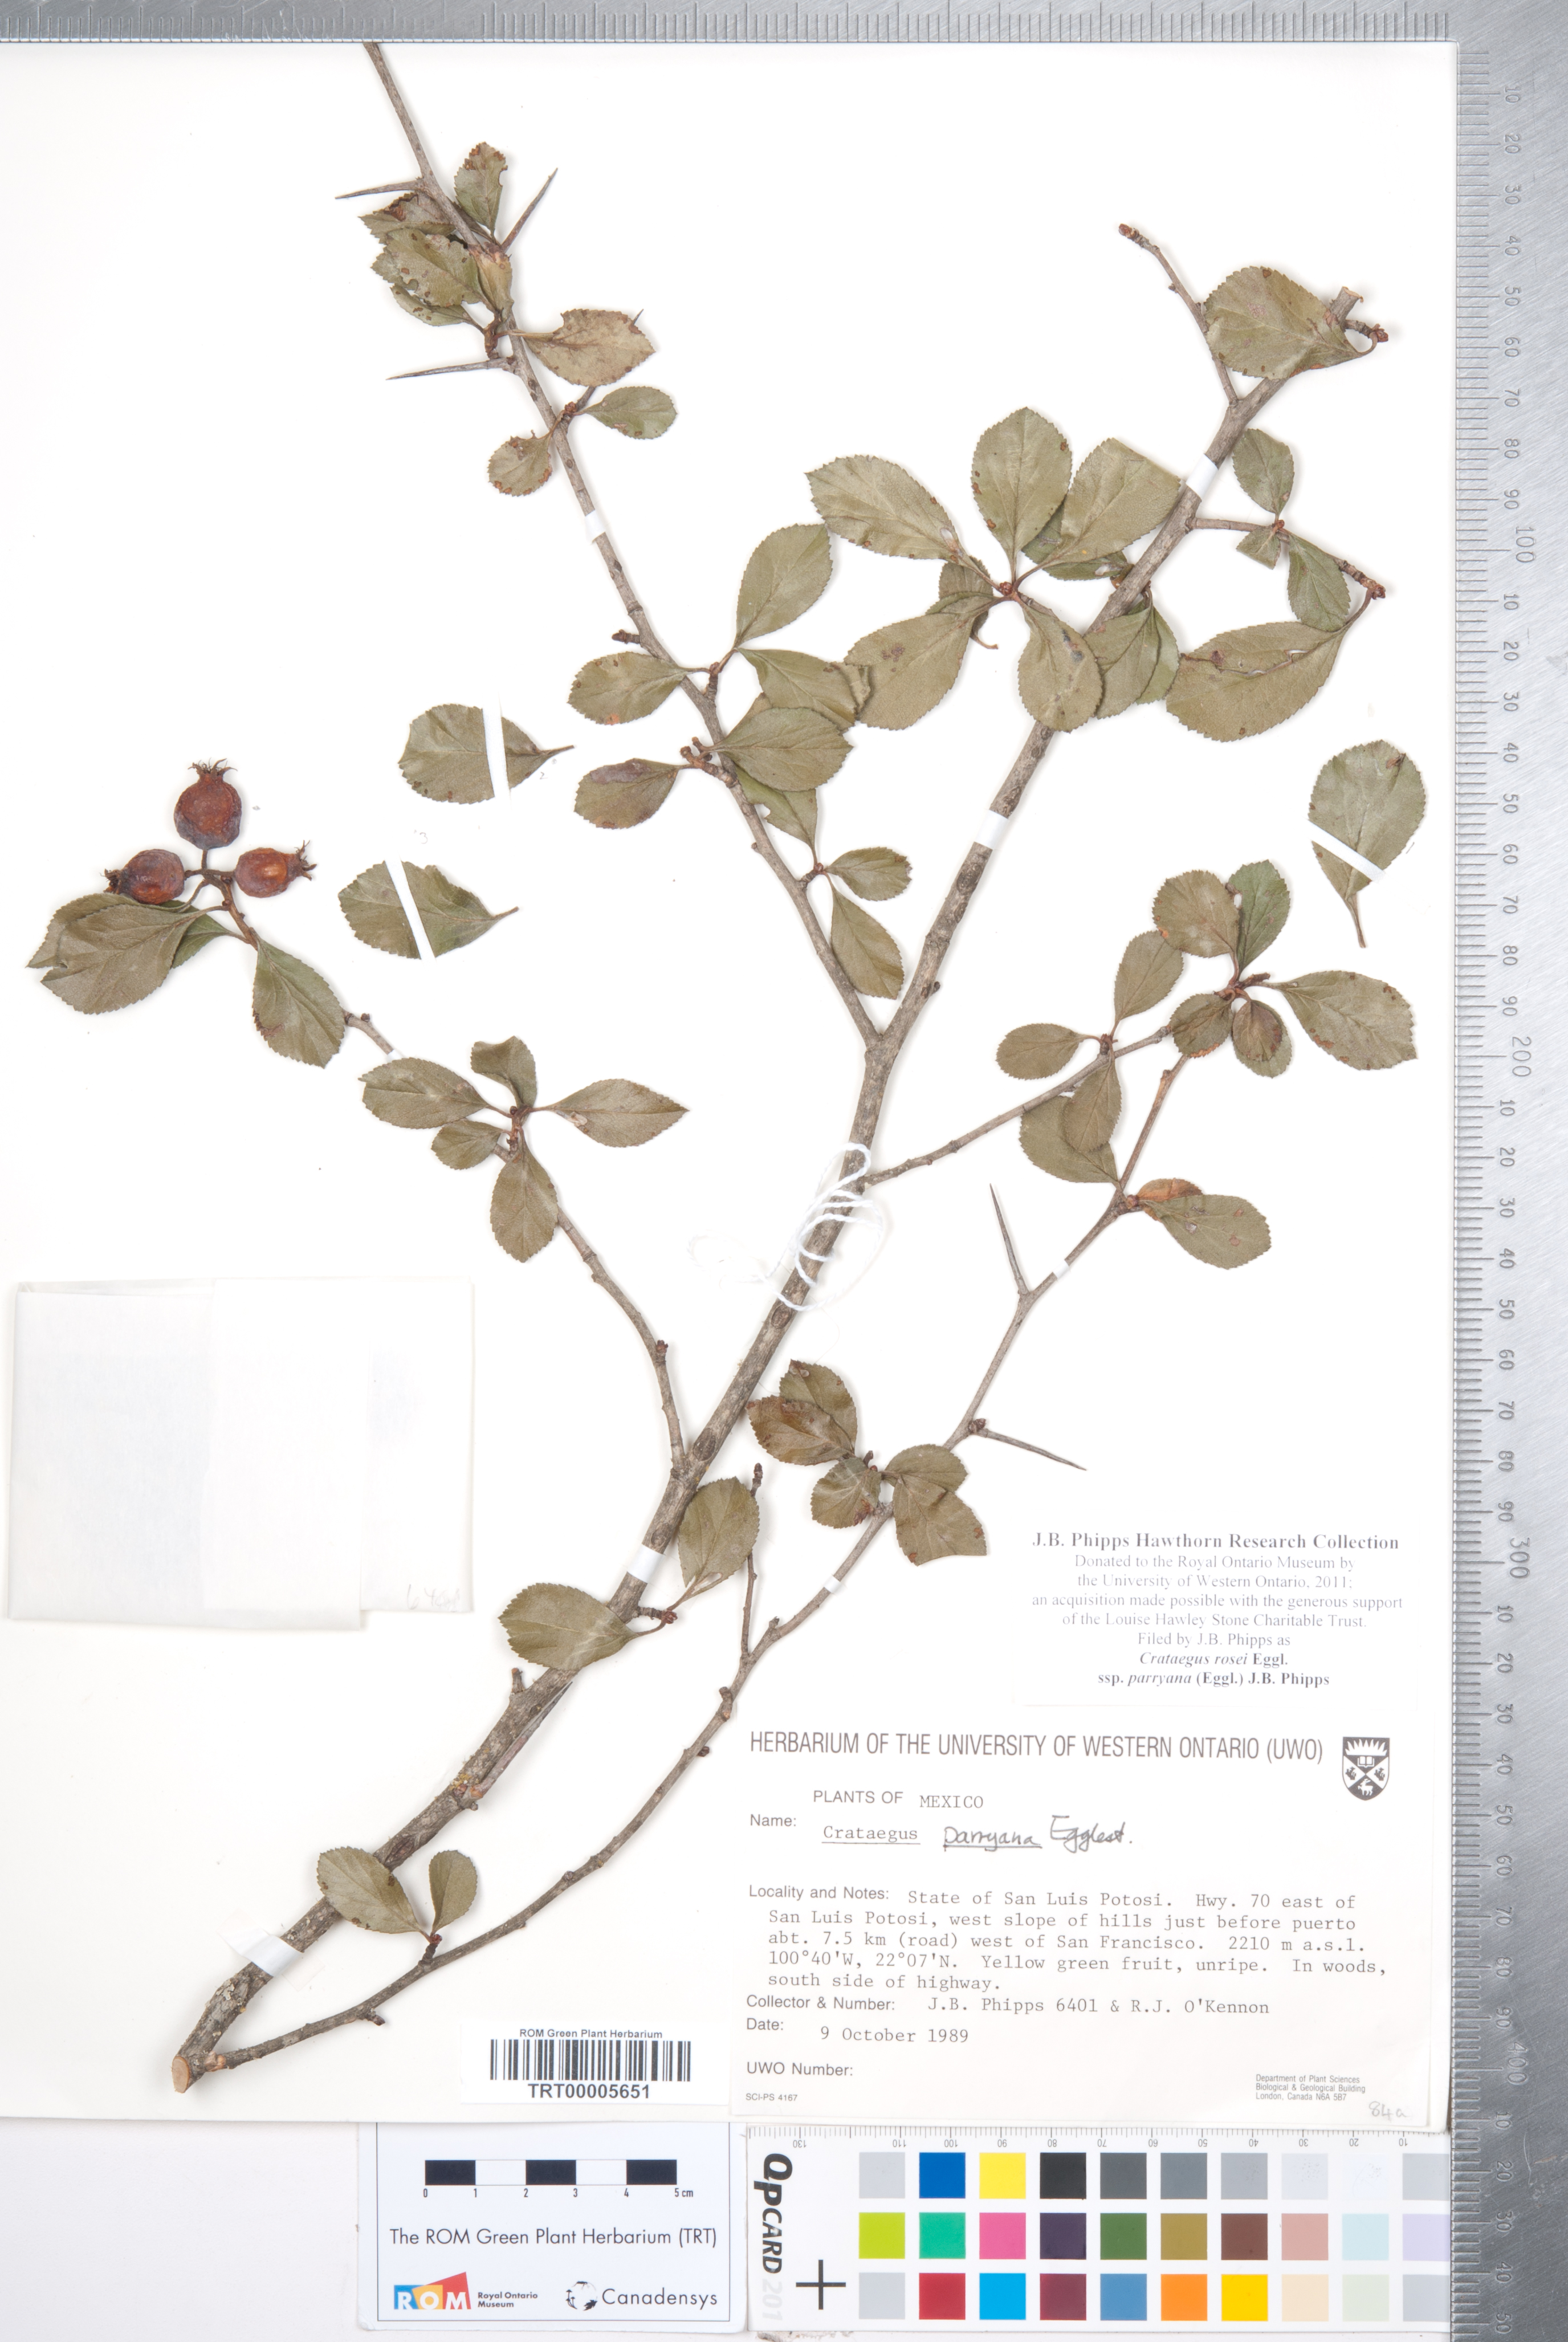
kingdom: Plantae
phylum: Tracheophyta
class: Magnoliopsida
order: Rosales
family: Rosaceae
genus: Crataegus
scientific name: Crataegus rosei
